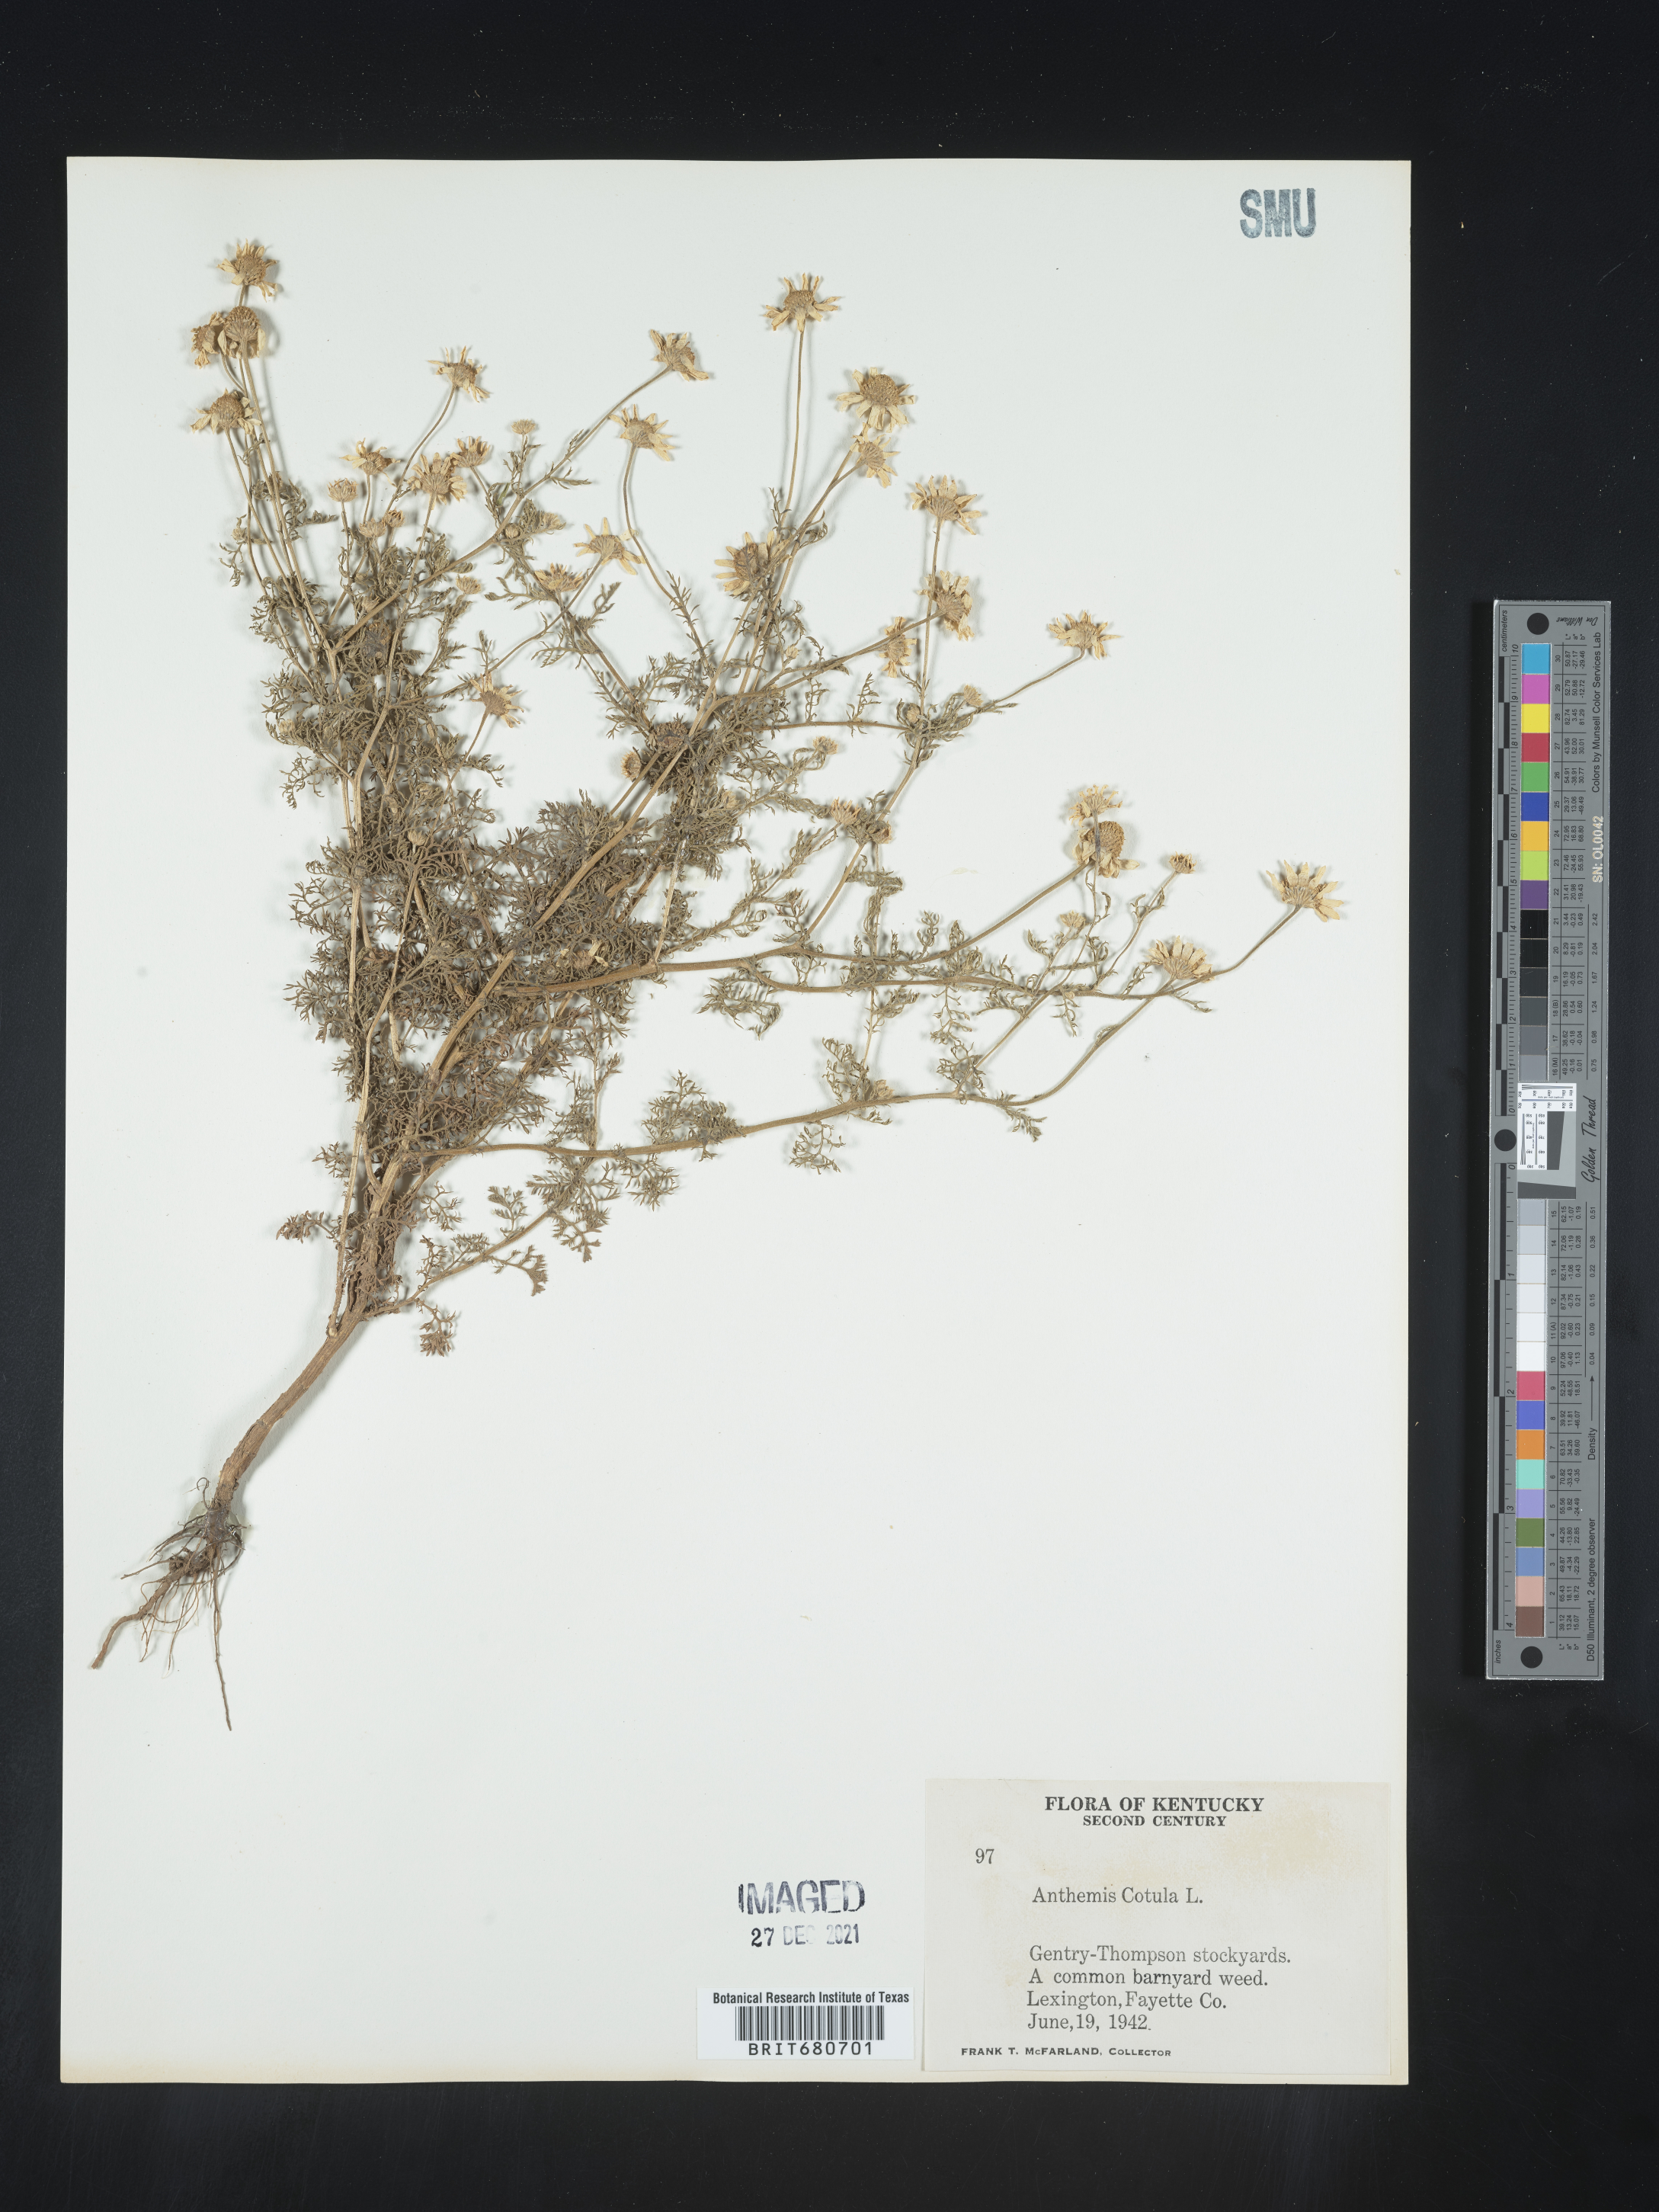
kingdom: Plantae
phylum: Tracheophyta
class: Magnoliopsida
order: Asterales
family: Asteraceae
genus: Anthemis
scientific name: Anthemis cotula
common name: Stinking chamomile
